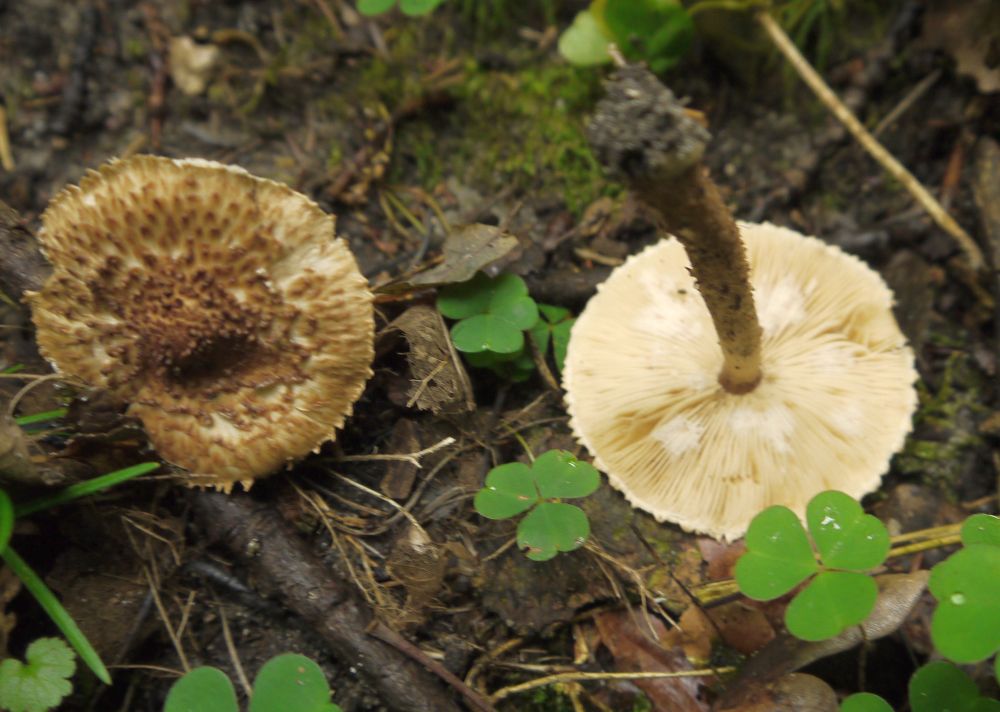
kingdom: Fungi
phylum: Basidiomycota
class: Agaricomycetes
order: Agaricales
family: Agaricaceae
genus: Echinoderma
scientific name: Echinoderma perplexum
